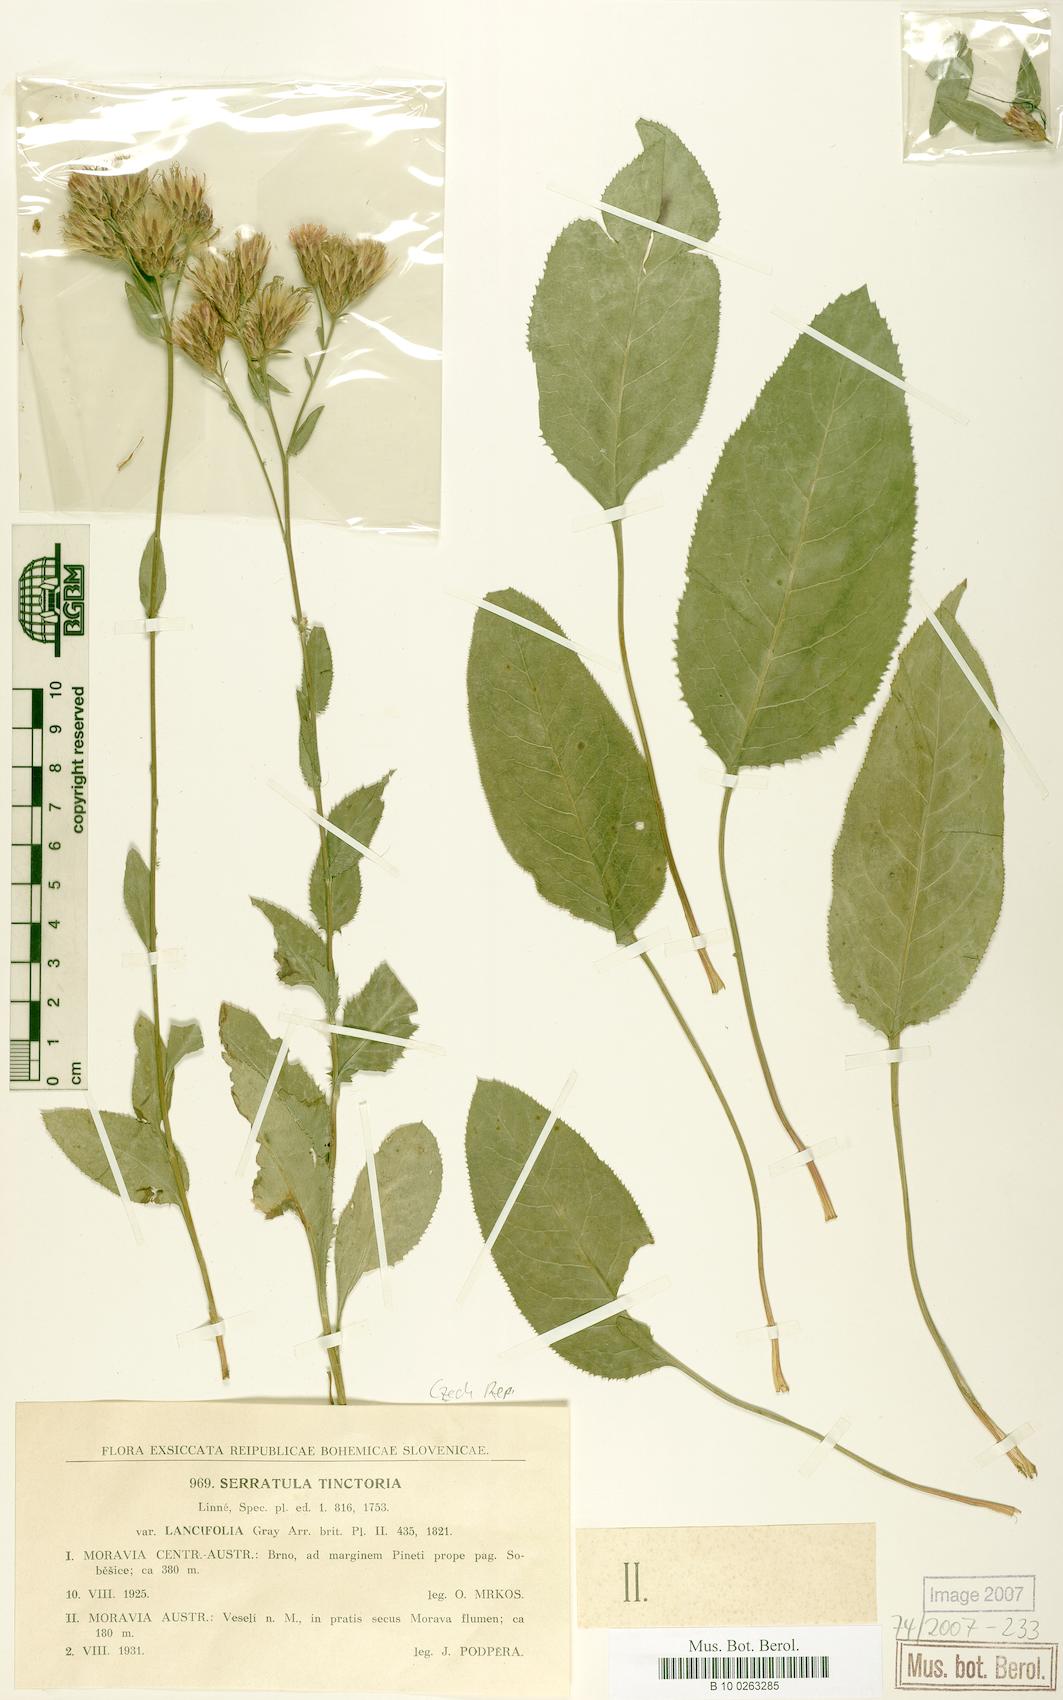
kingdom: Plantae
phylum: Tracheophyta
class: Magnoliopsida
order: Asterales
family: Asteraceae
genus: Serratula
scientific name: Serratula tinctoria
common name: Saw-wort
